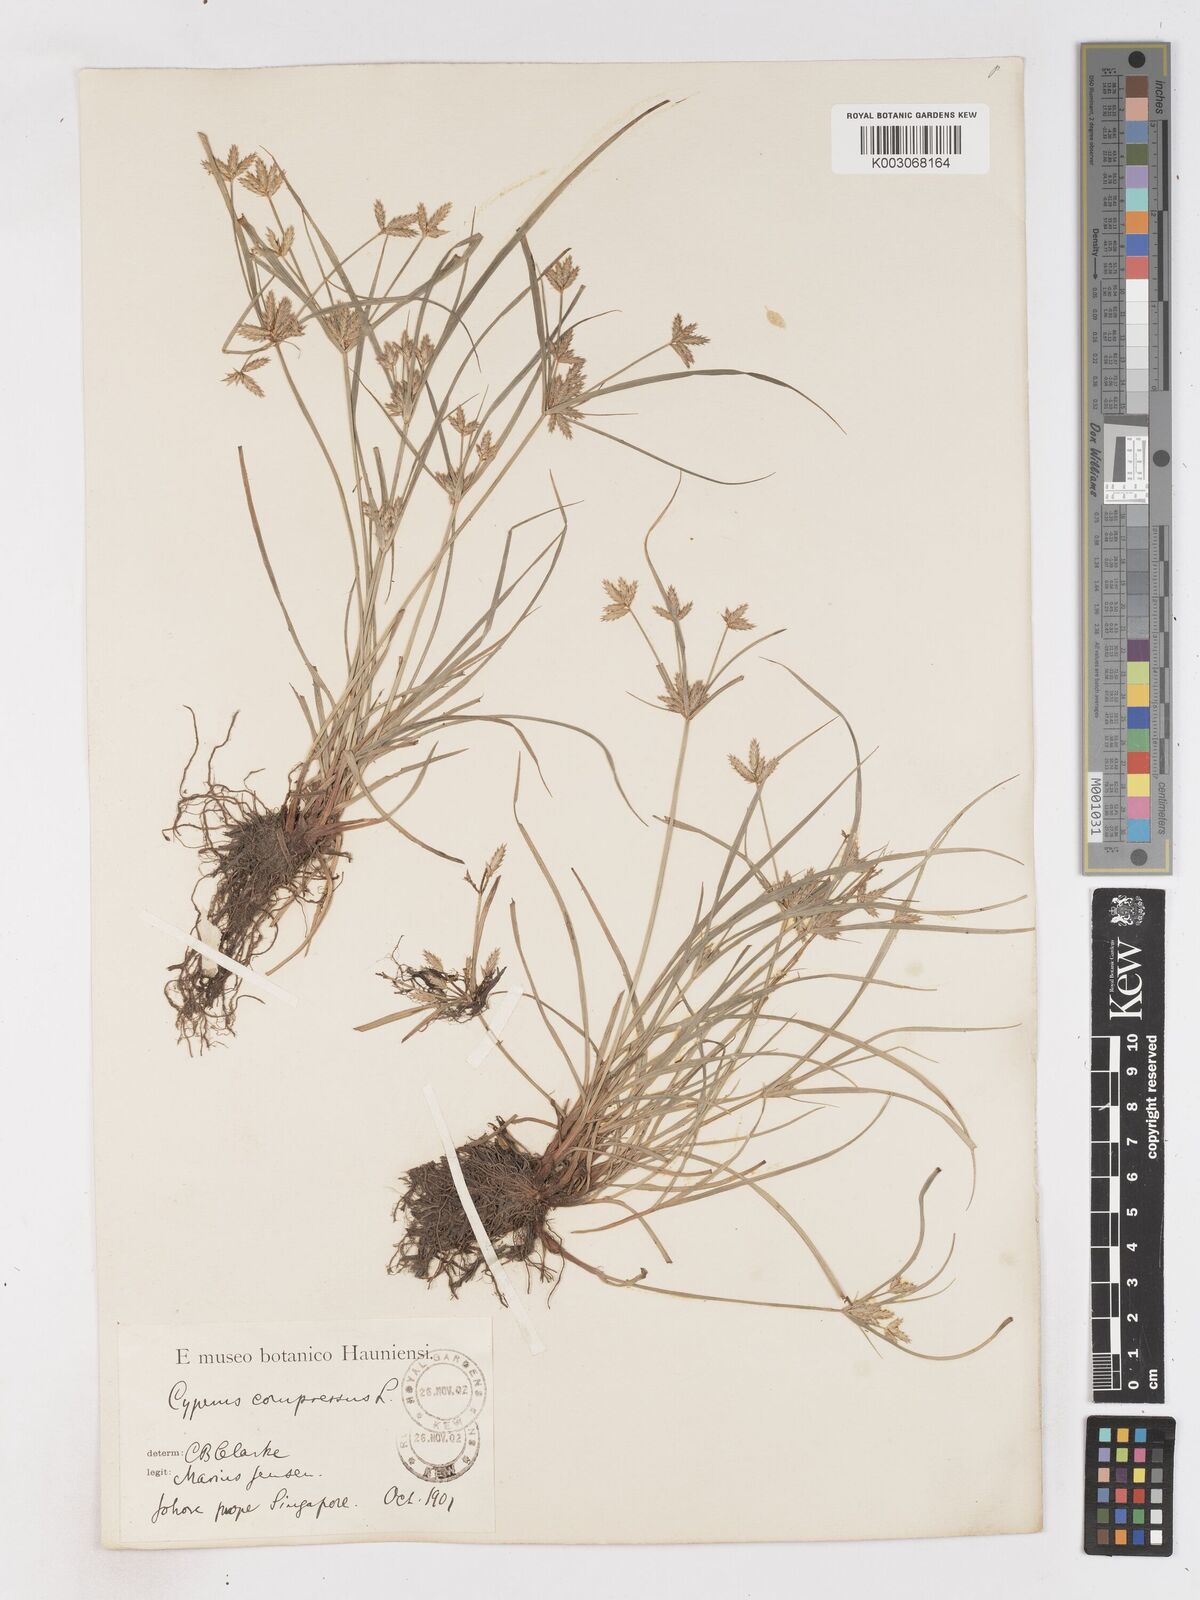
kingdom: Plantae
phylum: Tracheophyta
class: Liliopsida
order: Poales
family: Cyperaceae
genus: Cyperus
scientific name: Cyperus compressus
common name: Poorland flatsedge
